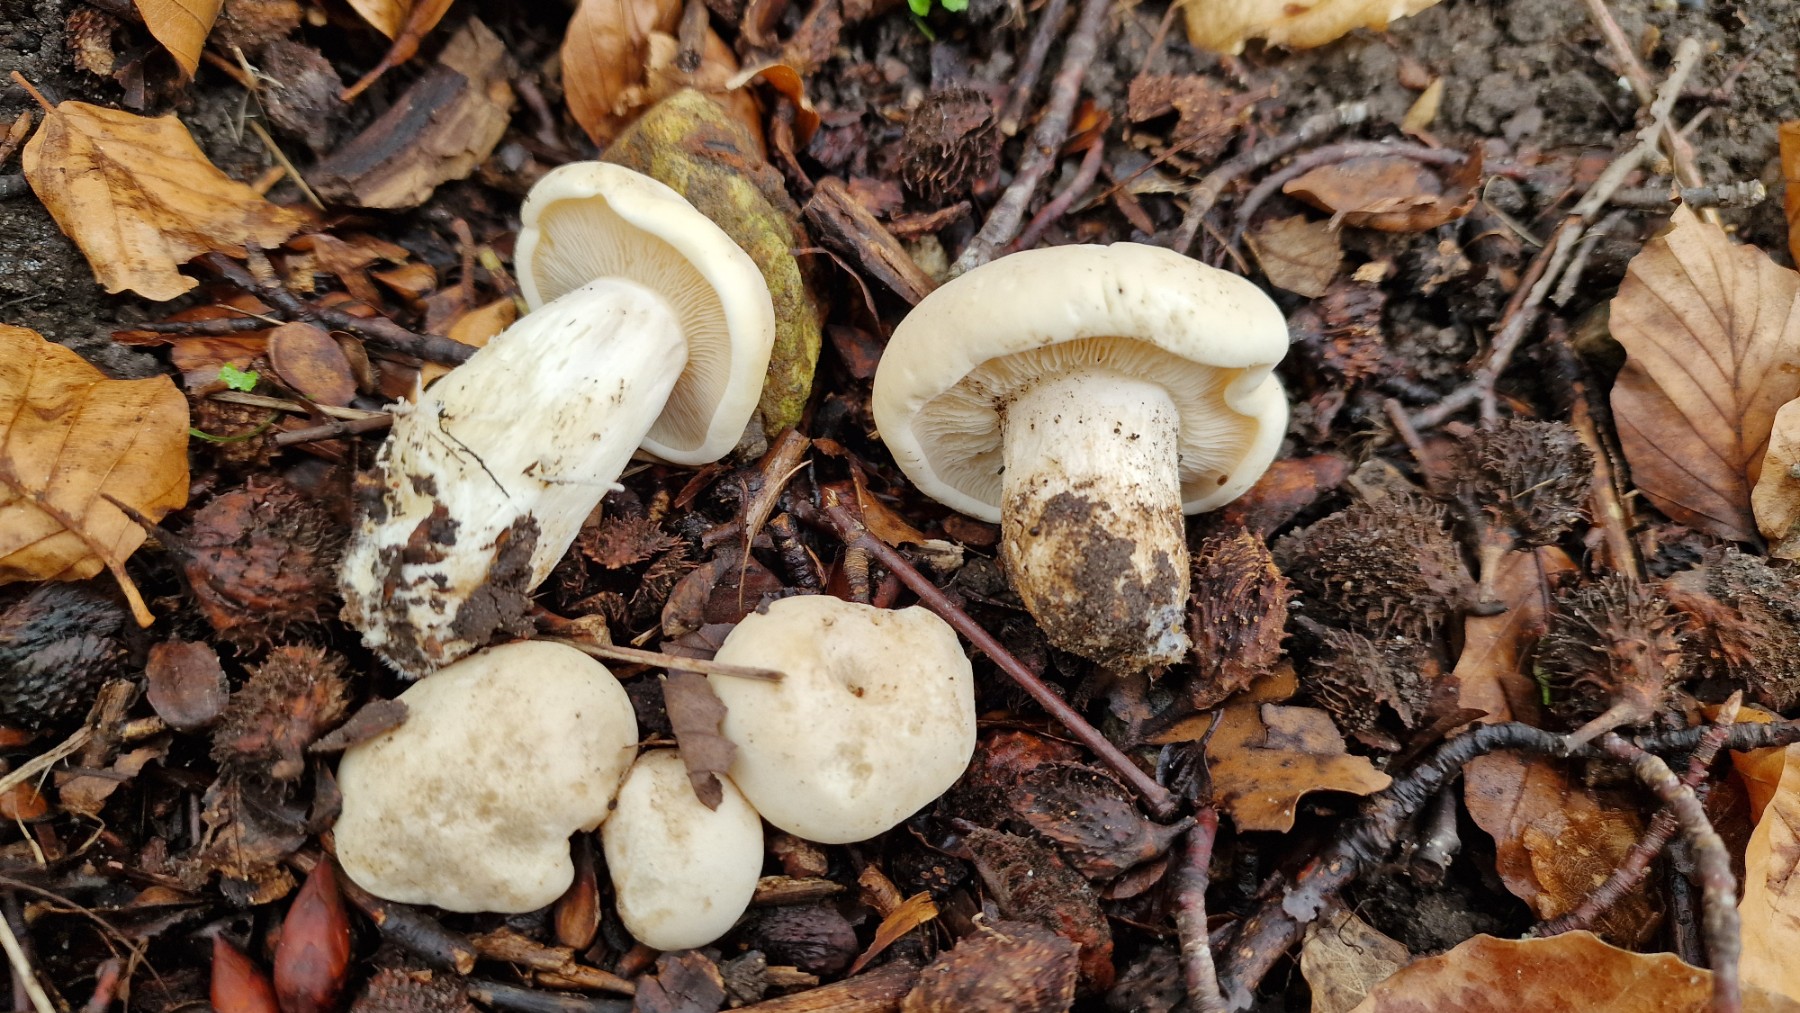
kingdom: Fungi
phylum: Basidiomycota
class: Agaricomycetes
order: Agaricales
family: Lyophyllaceae
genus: Calocybe
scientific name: Calocybe gambosa
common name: vårmusseron
